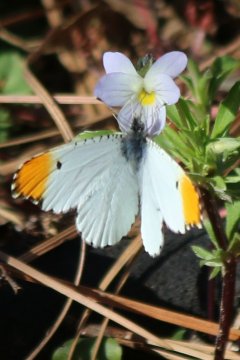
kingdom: Animalia
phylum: Arthropoda
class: Insecta
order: Lepidoptera
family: Pieridae
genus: Anthocharis
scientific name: Anthocharis midea
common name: Falcate Orangetip
